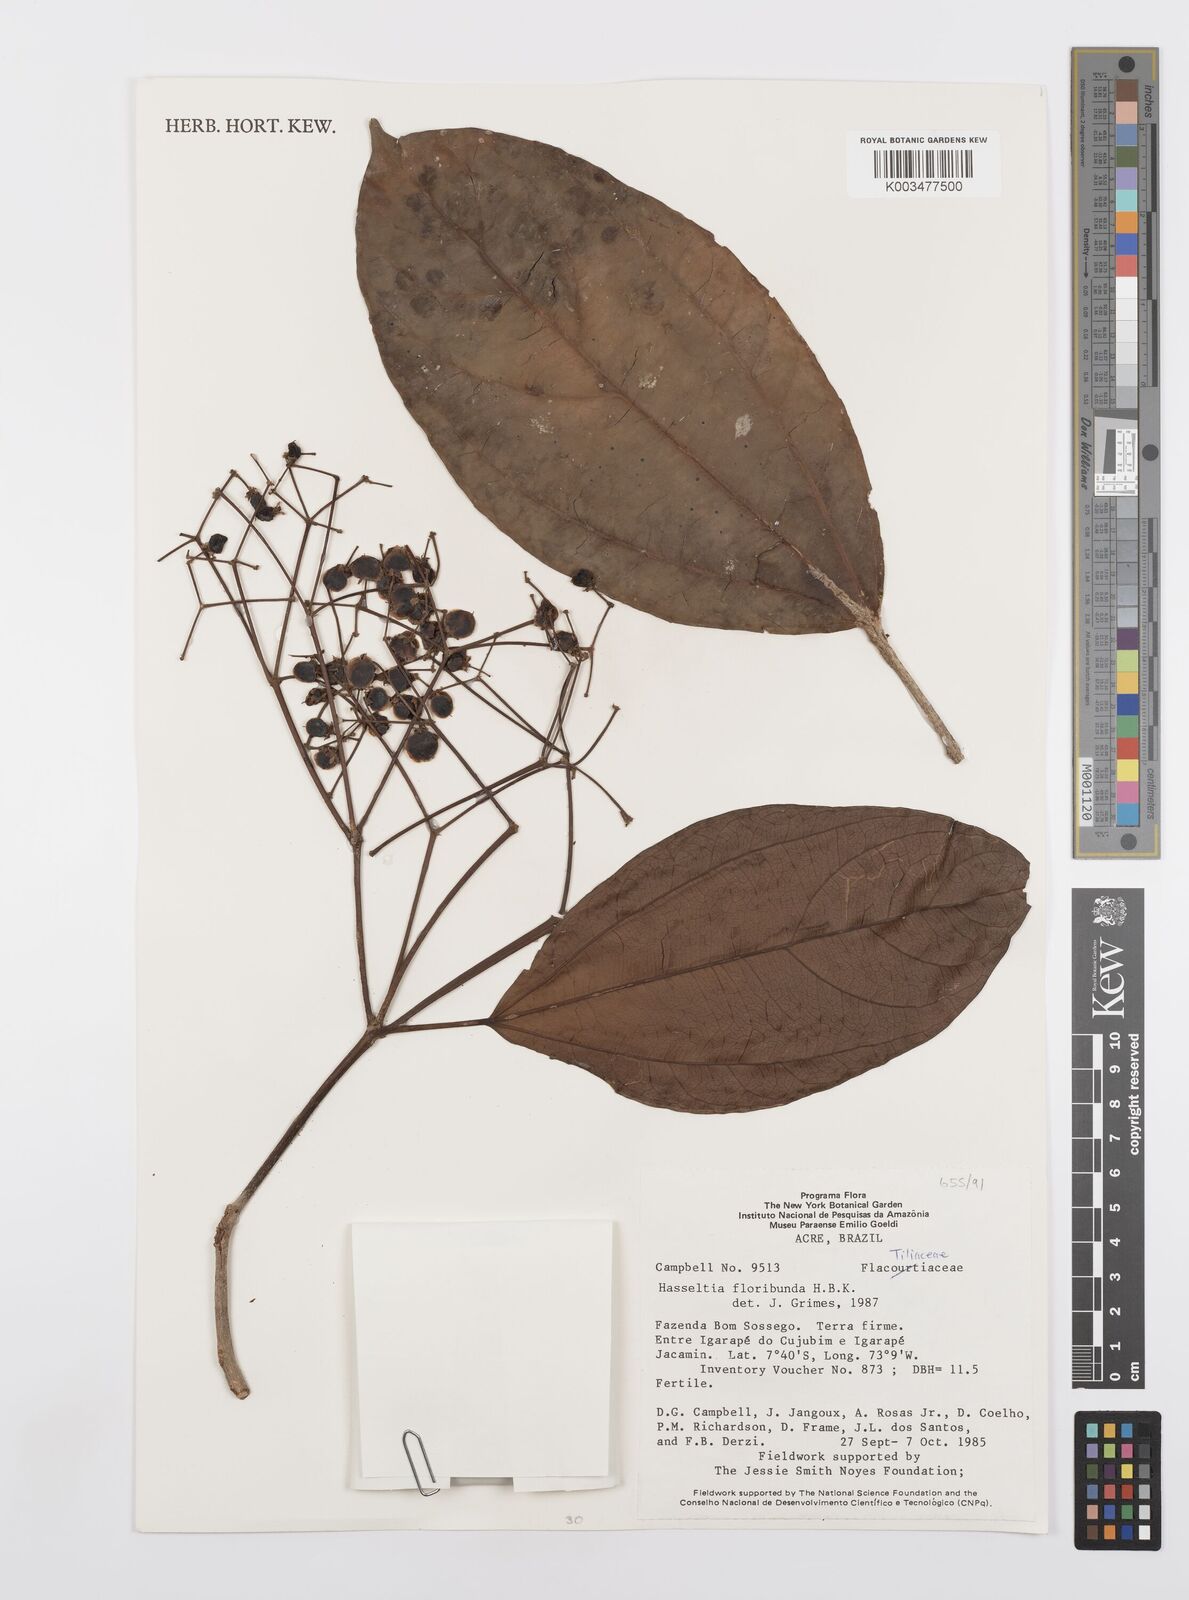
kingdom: Plantae
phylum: Tracheophyta
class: Magnoliopsida
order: Malpighiales
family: Salicaceae
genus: Hasseltia
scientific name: Hasseltia floribunda
